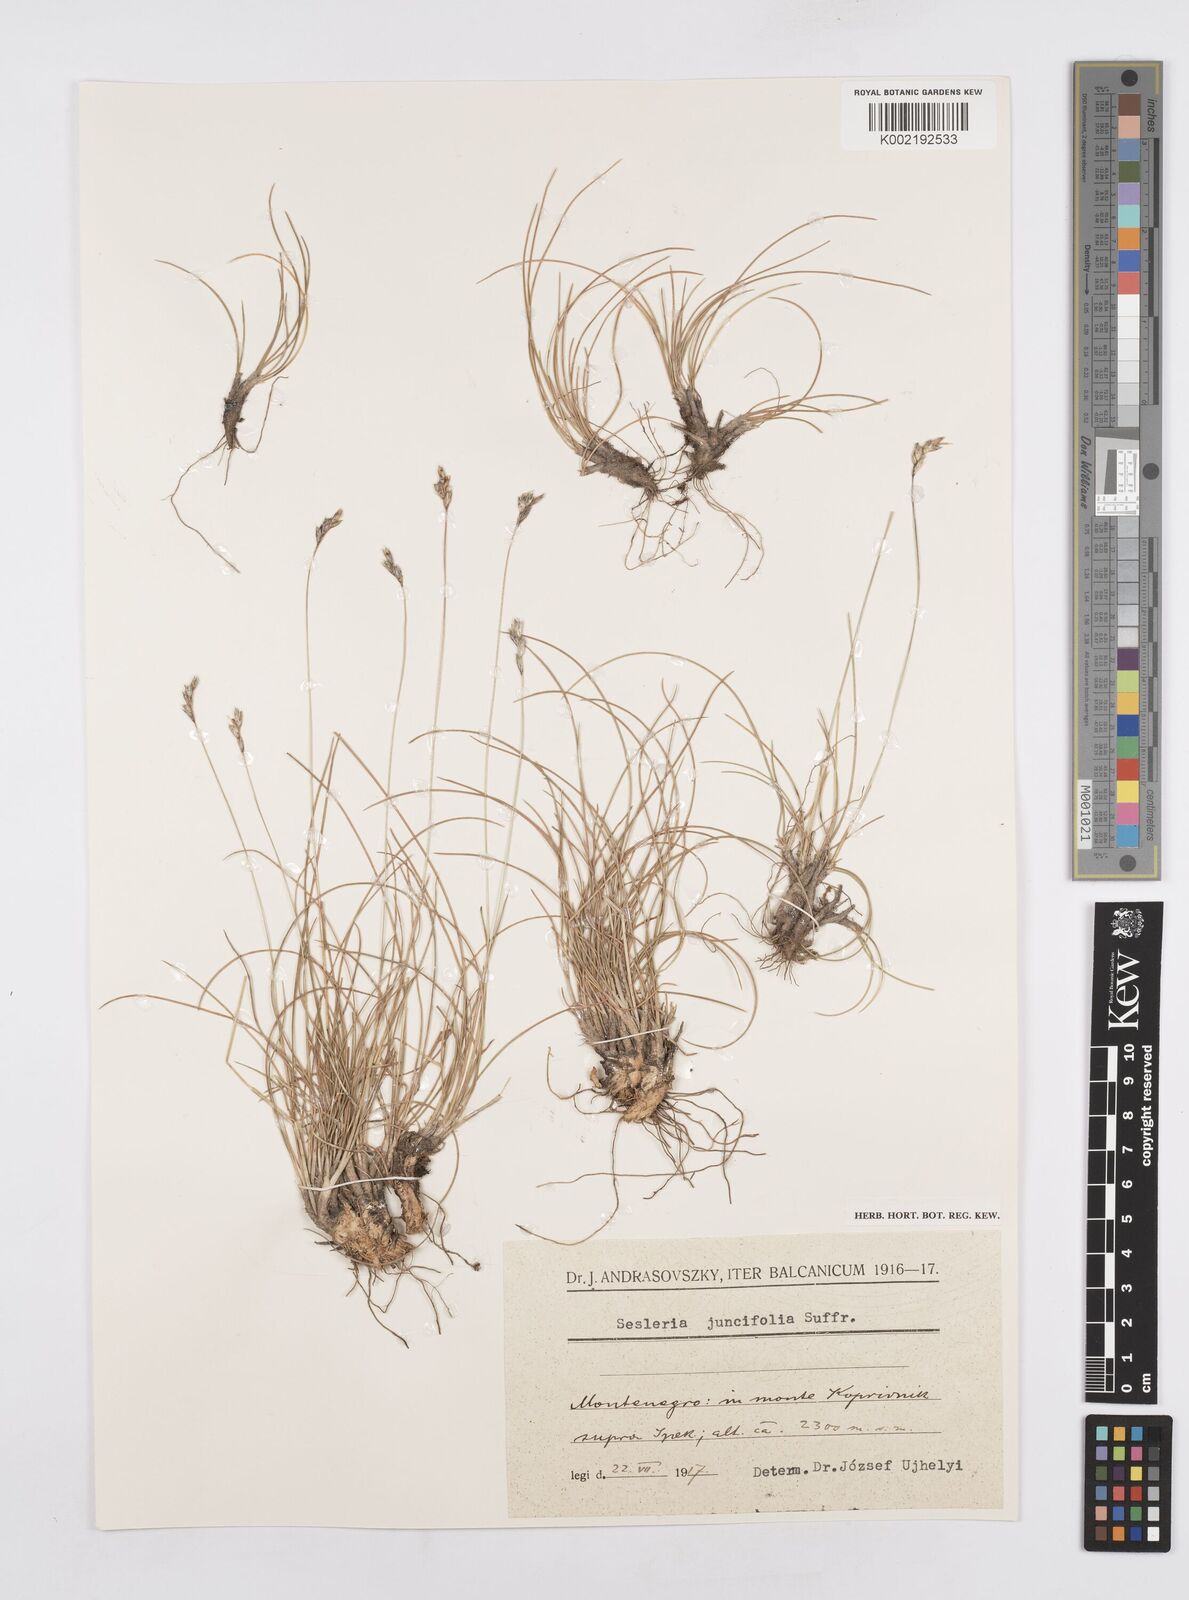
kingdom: Plantae
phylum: Tracheophyta
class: Liliopsida
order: Poales
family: Poaceae
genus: Sesleria
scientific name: Sesleria juncifolia
